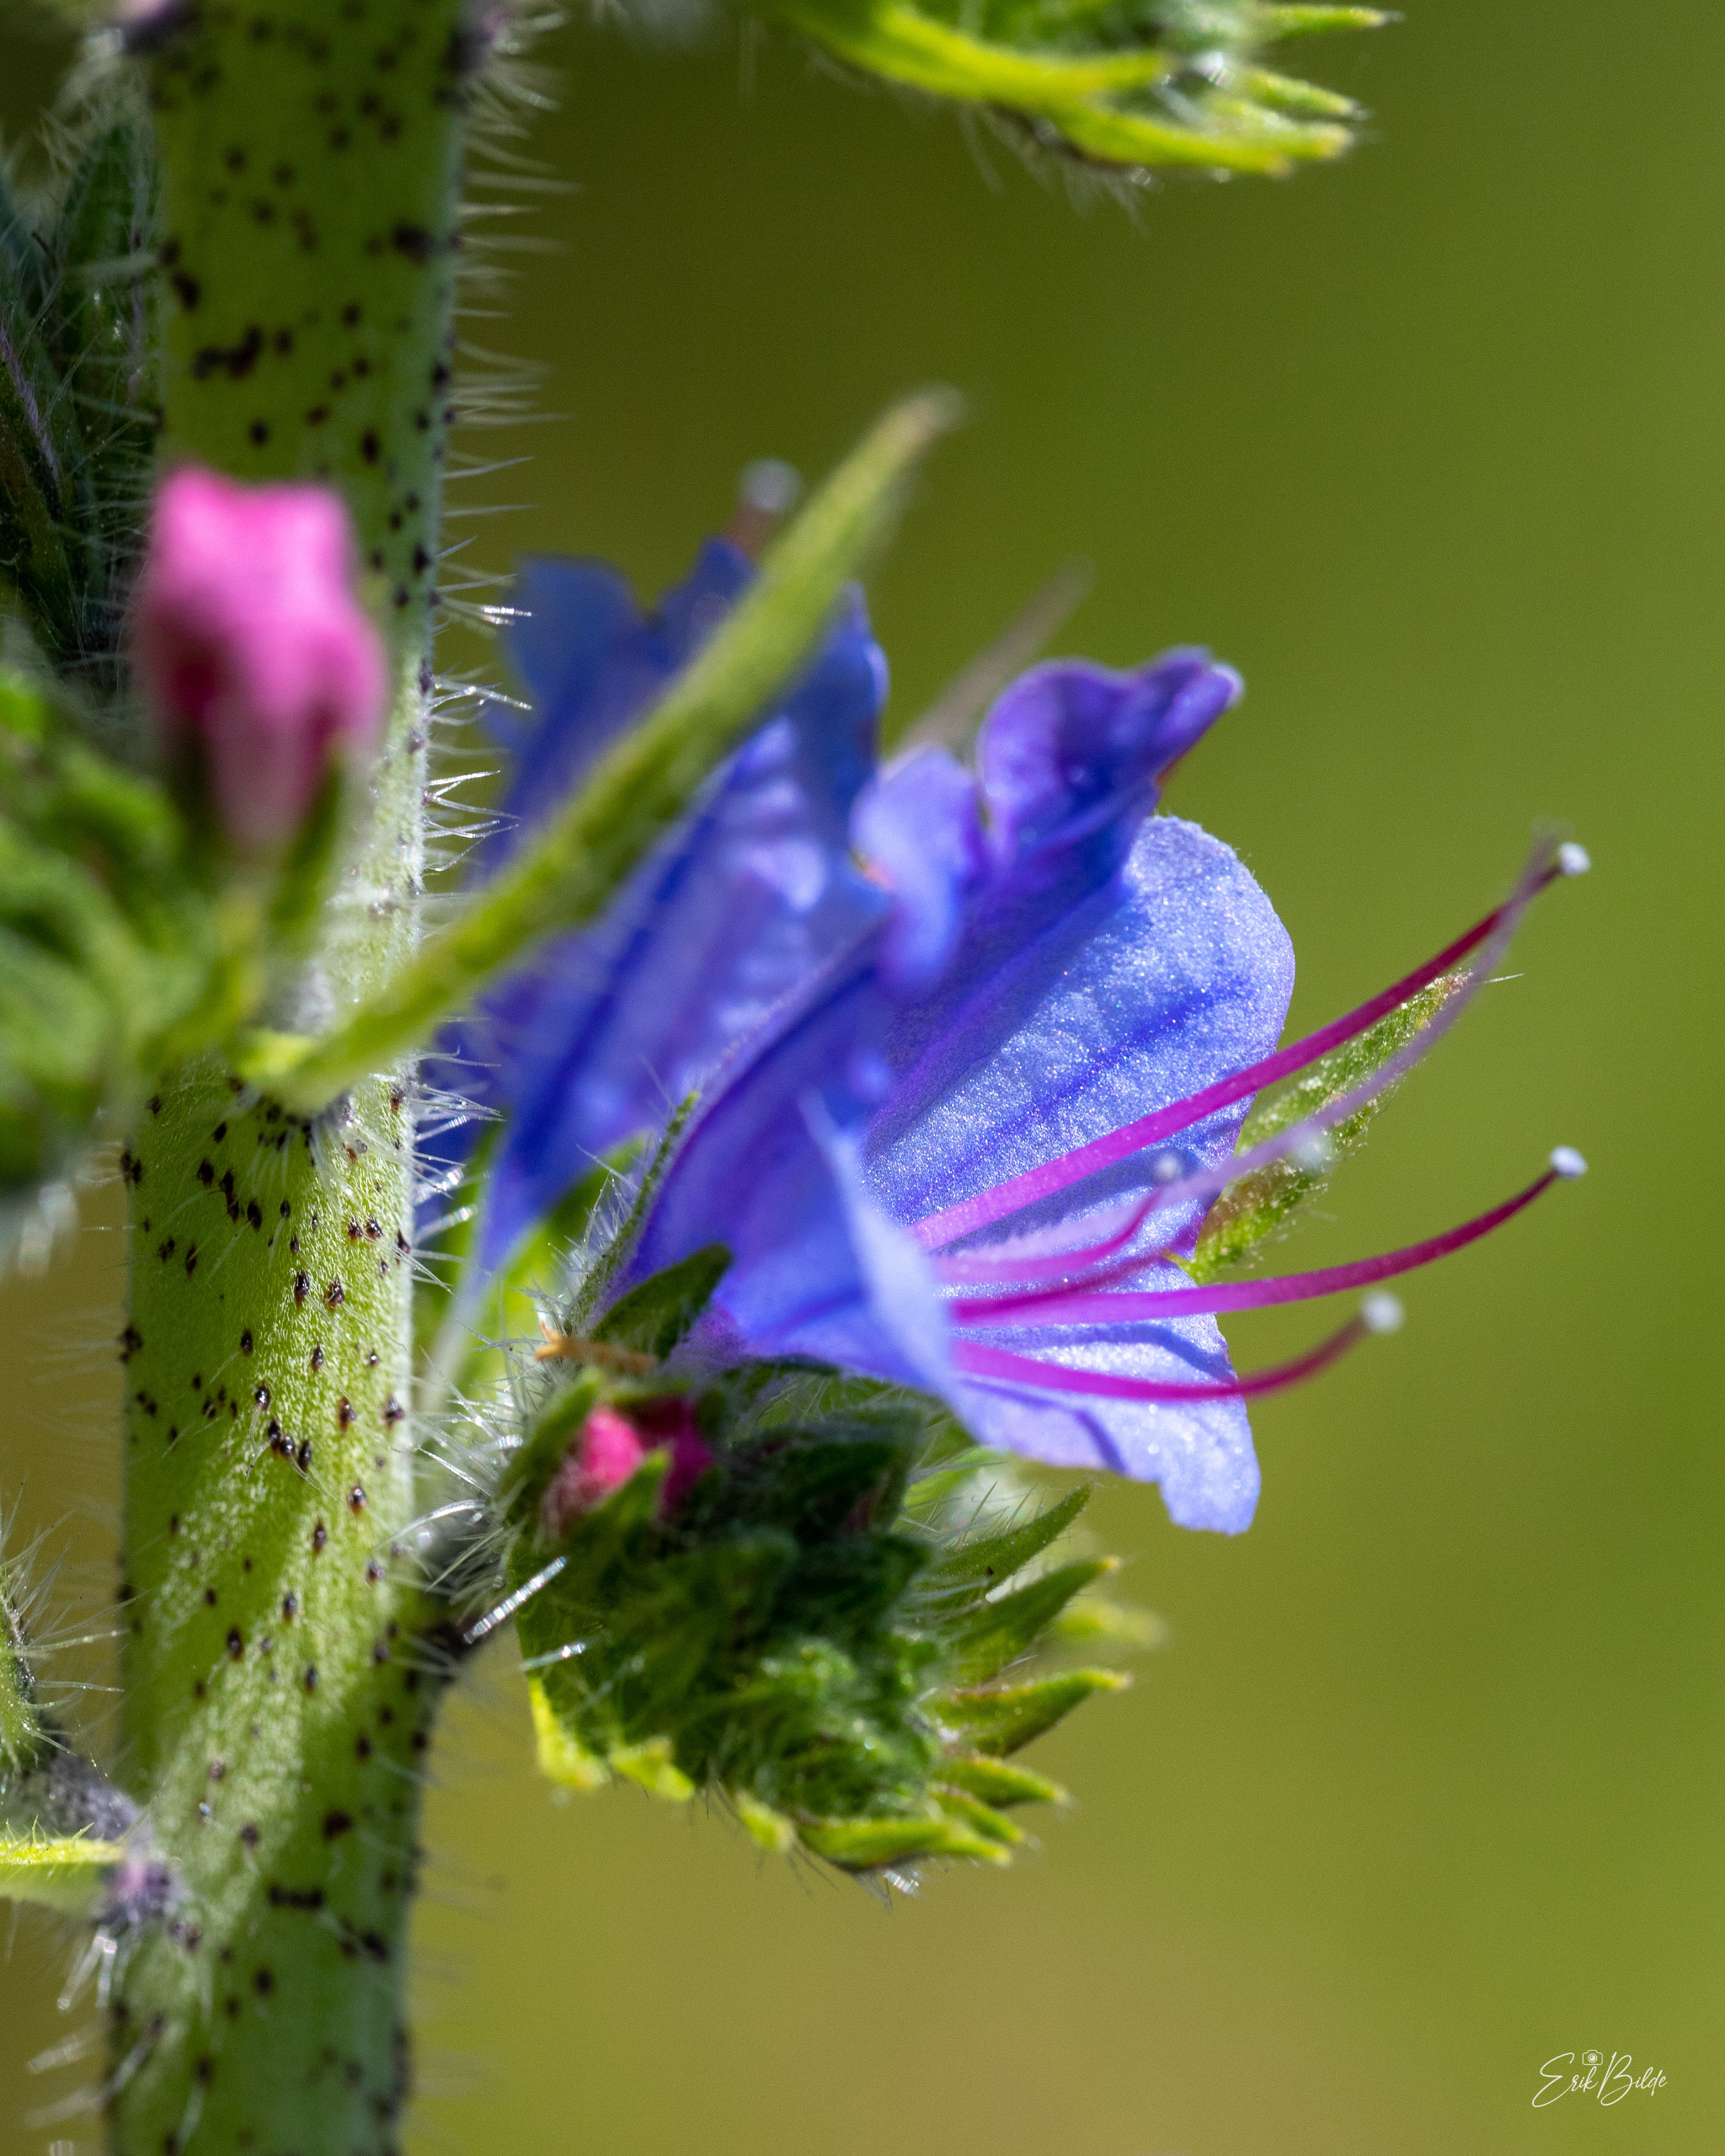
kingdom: Plantae
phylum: Tracheophyta
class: Magnoliopsida
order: Boraginales
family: Boraginaceae
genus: Echium
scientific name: Echium vulgare
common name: Slangehoved
